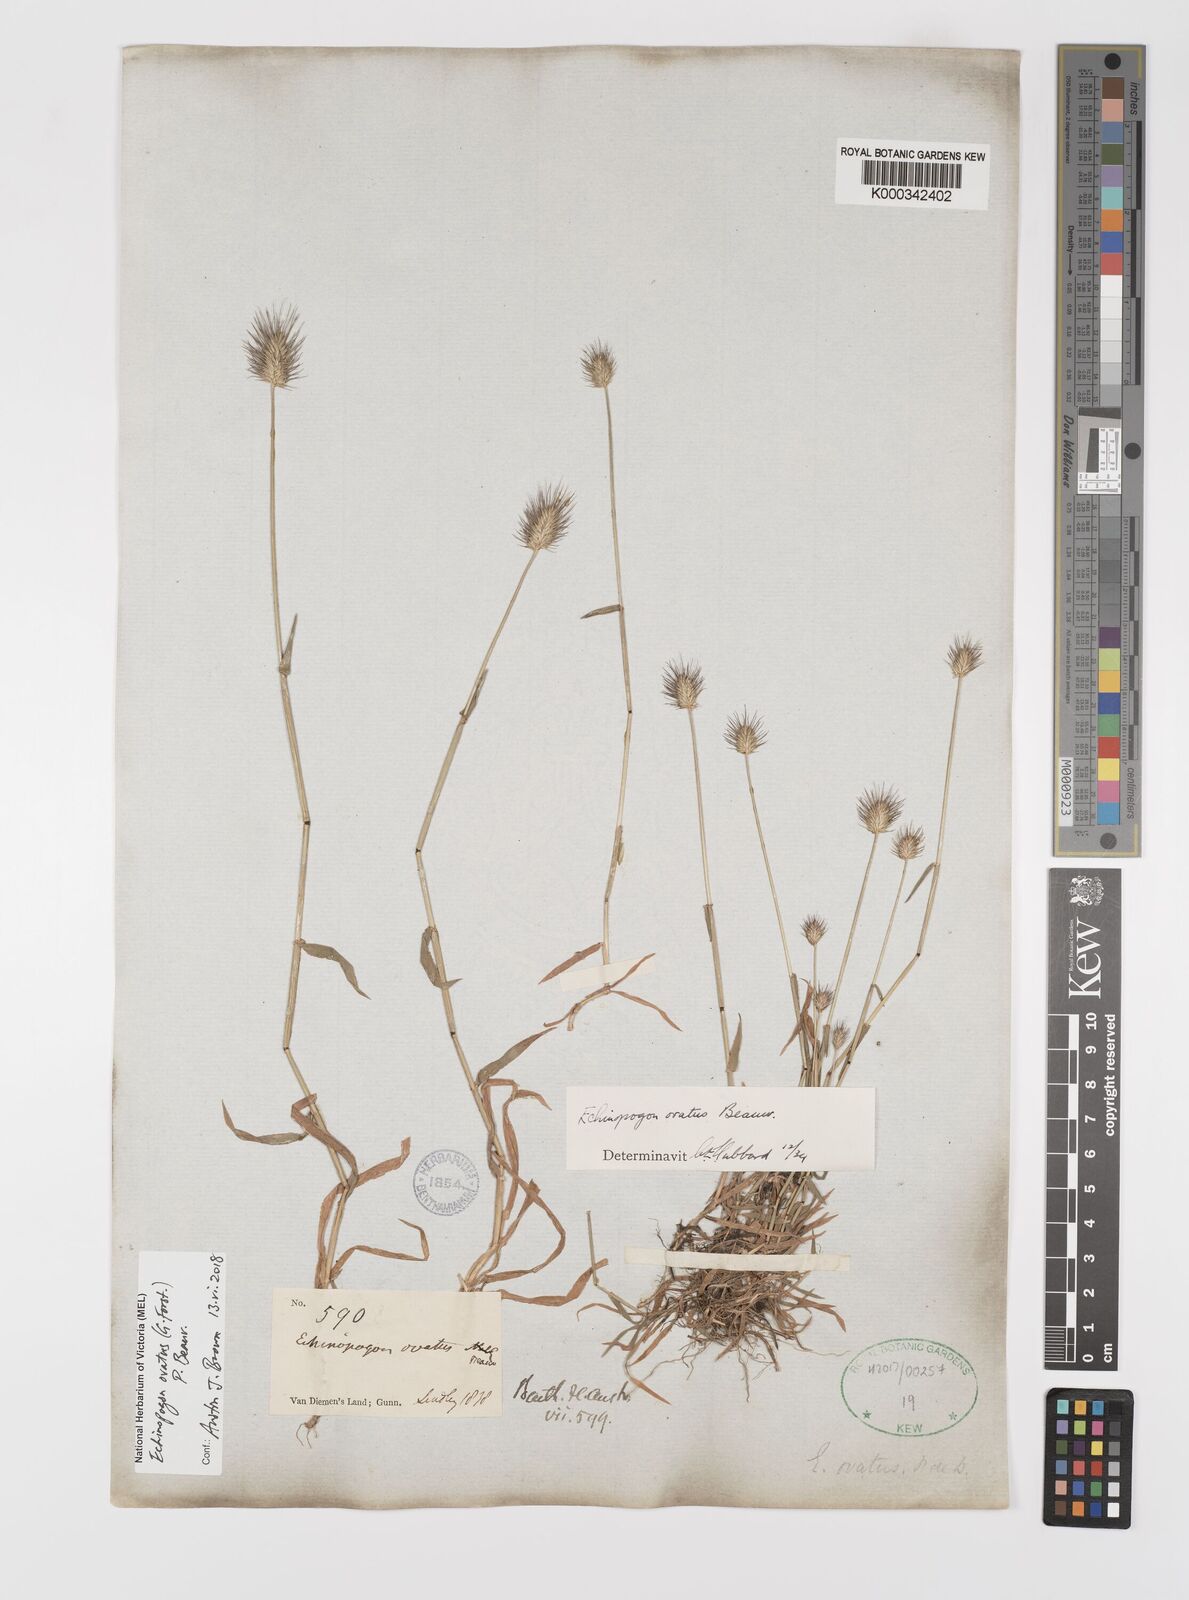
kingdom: Plantae
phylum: Tracheophyta
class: Liliopsida
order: Poales
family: Poaceae
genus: Echinopogon
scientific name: Echinopogon ovatus
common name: Hedgehog-grass
